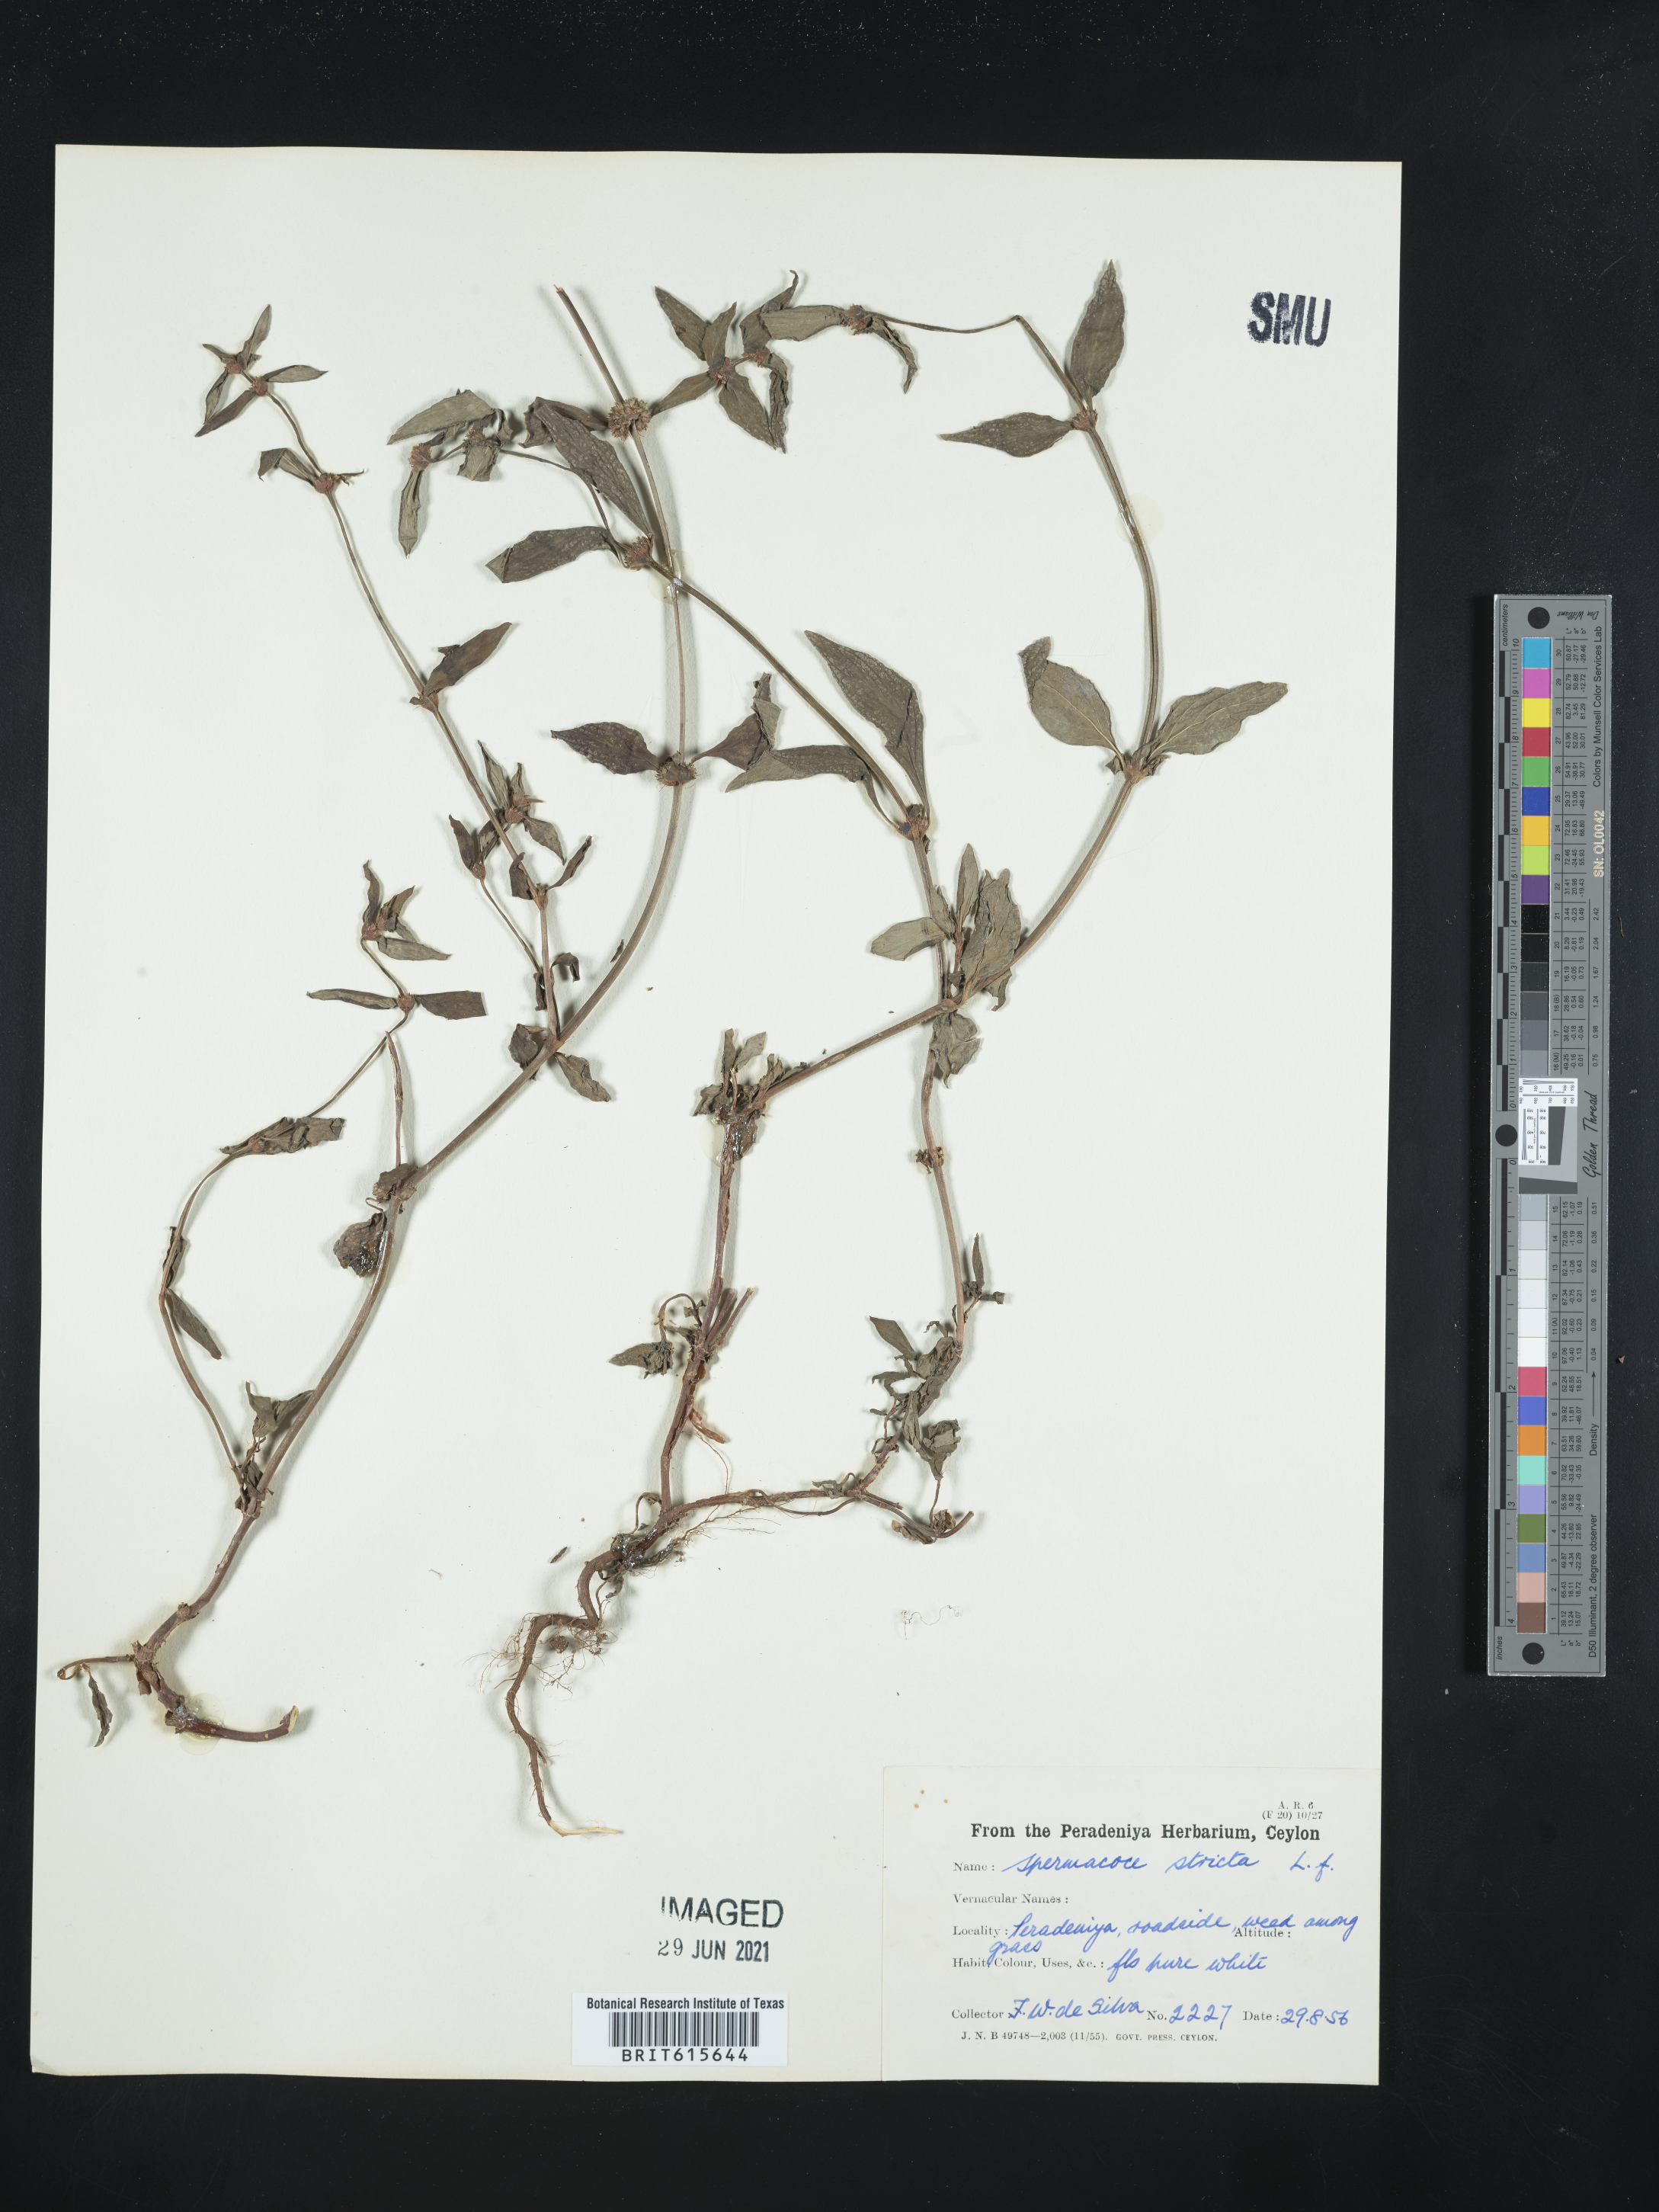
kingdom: Plantae
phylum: Tracheophyta
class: Magnoliopsida
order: Gentianales
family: Rubiaceae
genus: Spermacoce
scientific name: Spermacoce brachystema
